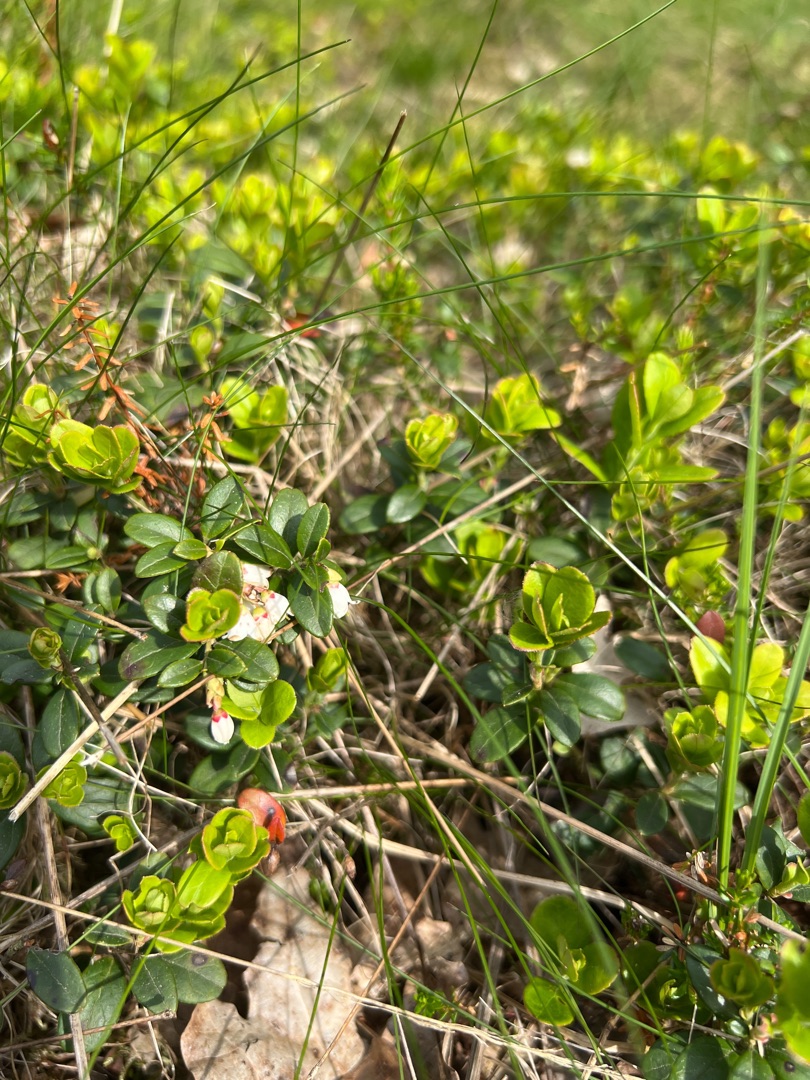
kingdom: Plantae
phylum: Tracheophyta
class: Magnoliopsida
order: Ericales
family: Ericaceae
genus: Vaccinium
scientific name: Vaccinium vitis-idaea
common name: Tyttebær
